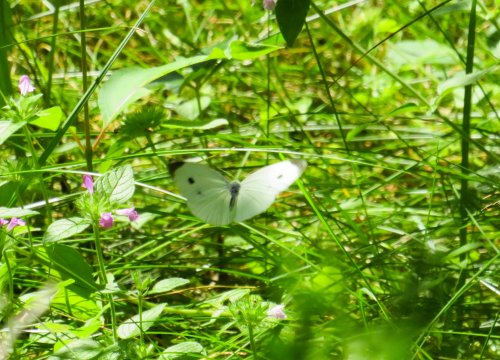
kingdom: Animalia
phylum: Arthropoda
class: Insecta
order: Lepidoptera
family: Pieridae
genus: Pieris
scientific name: Pieris rapae
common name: Cabbage White
